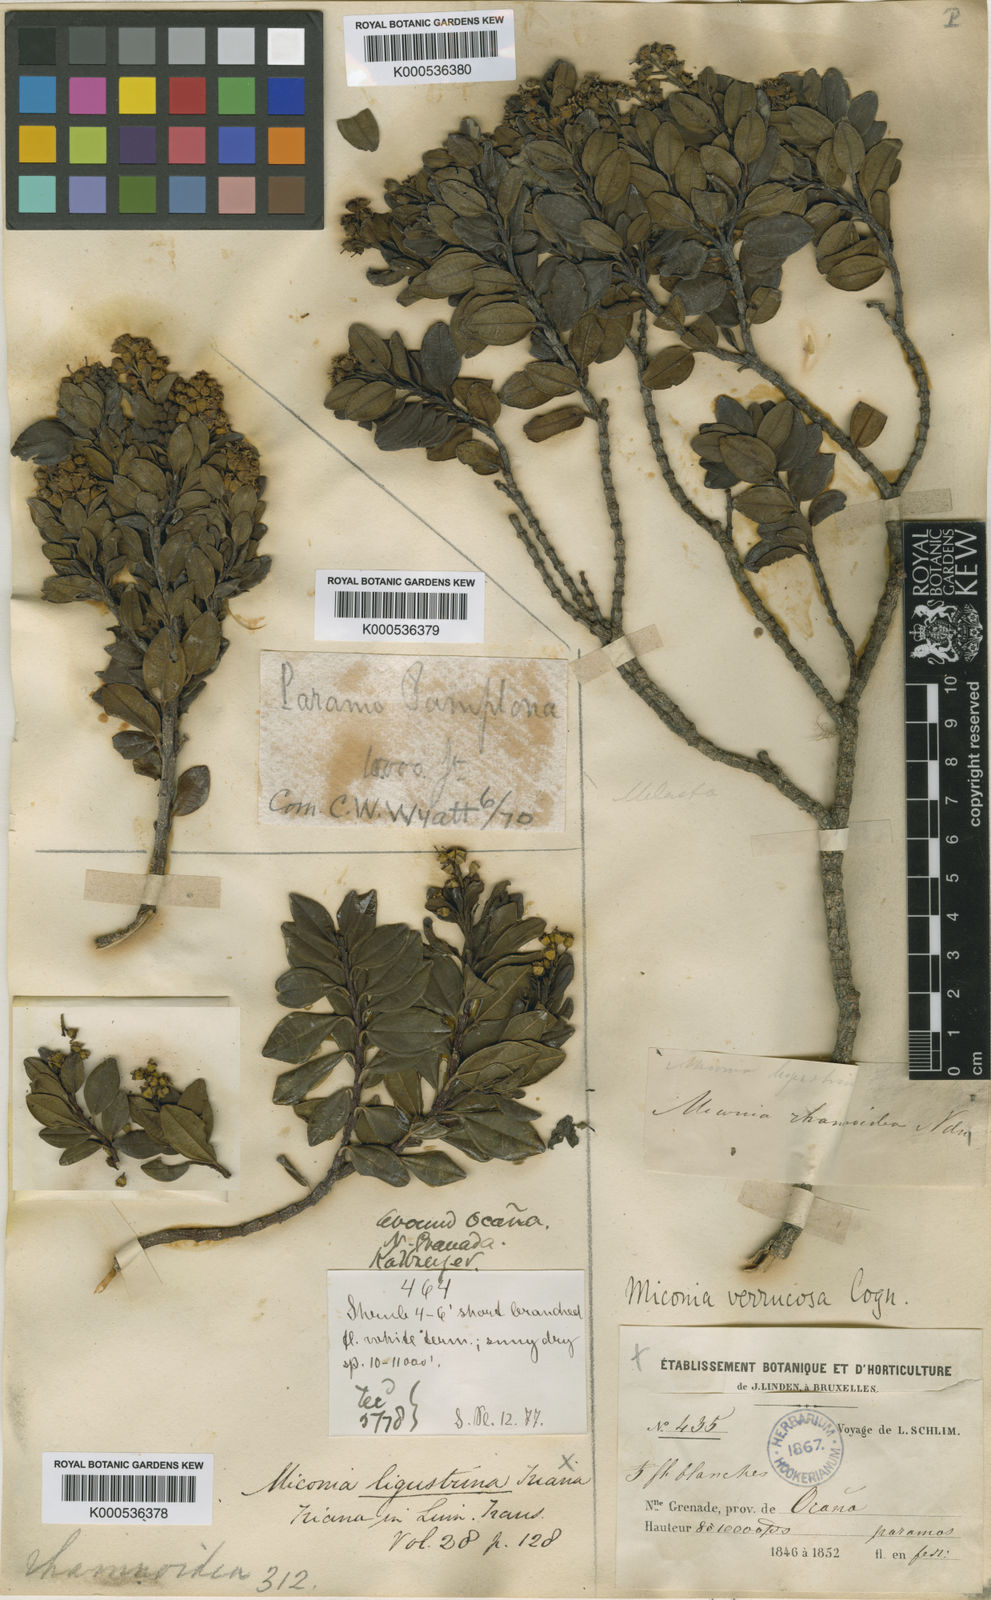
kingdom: Plantae
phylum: Tracheophyta
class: Magnoliopsida
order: Myrtales
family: Melastomataceae
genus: Miconia
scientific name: Miconia verrucosa
